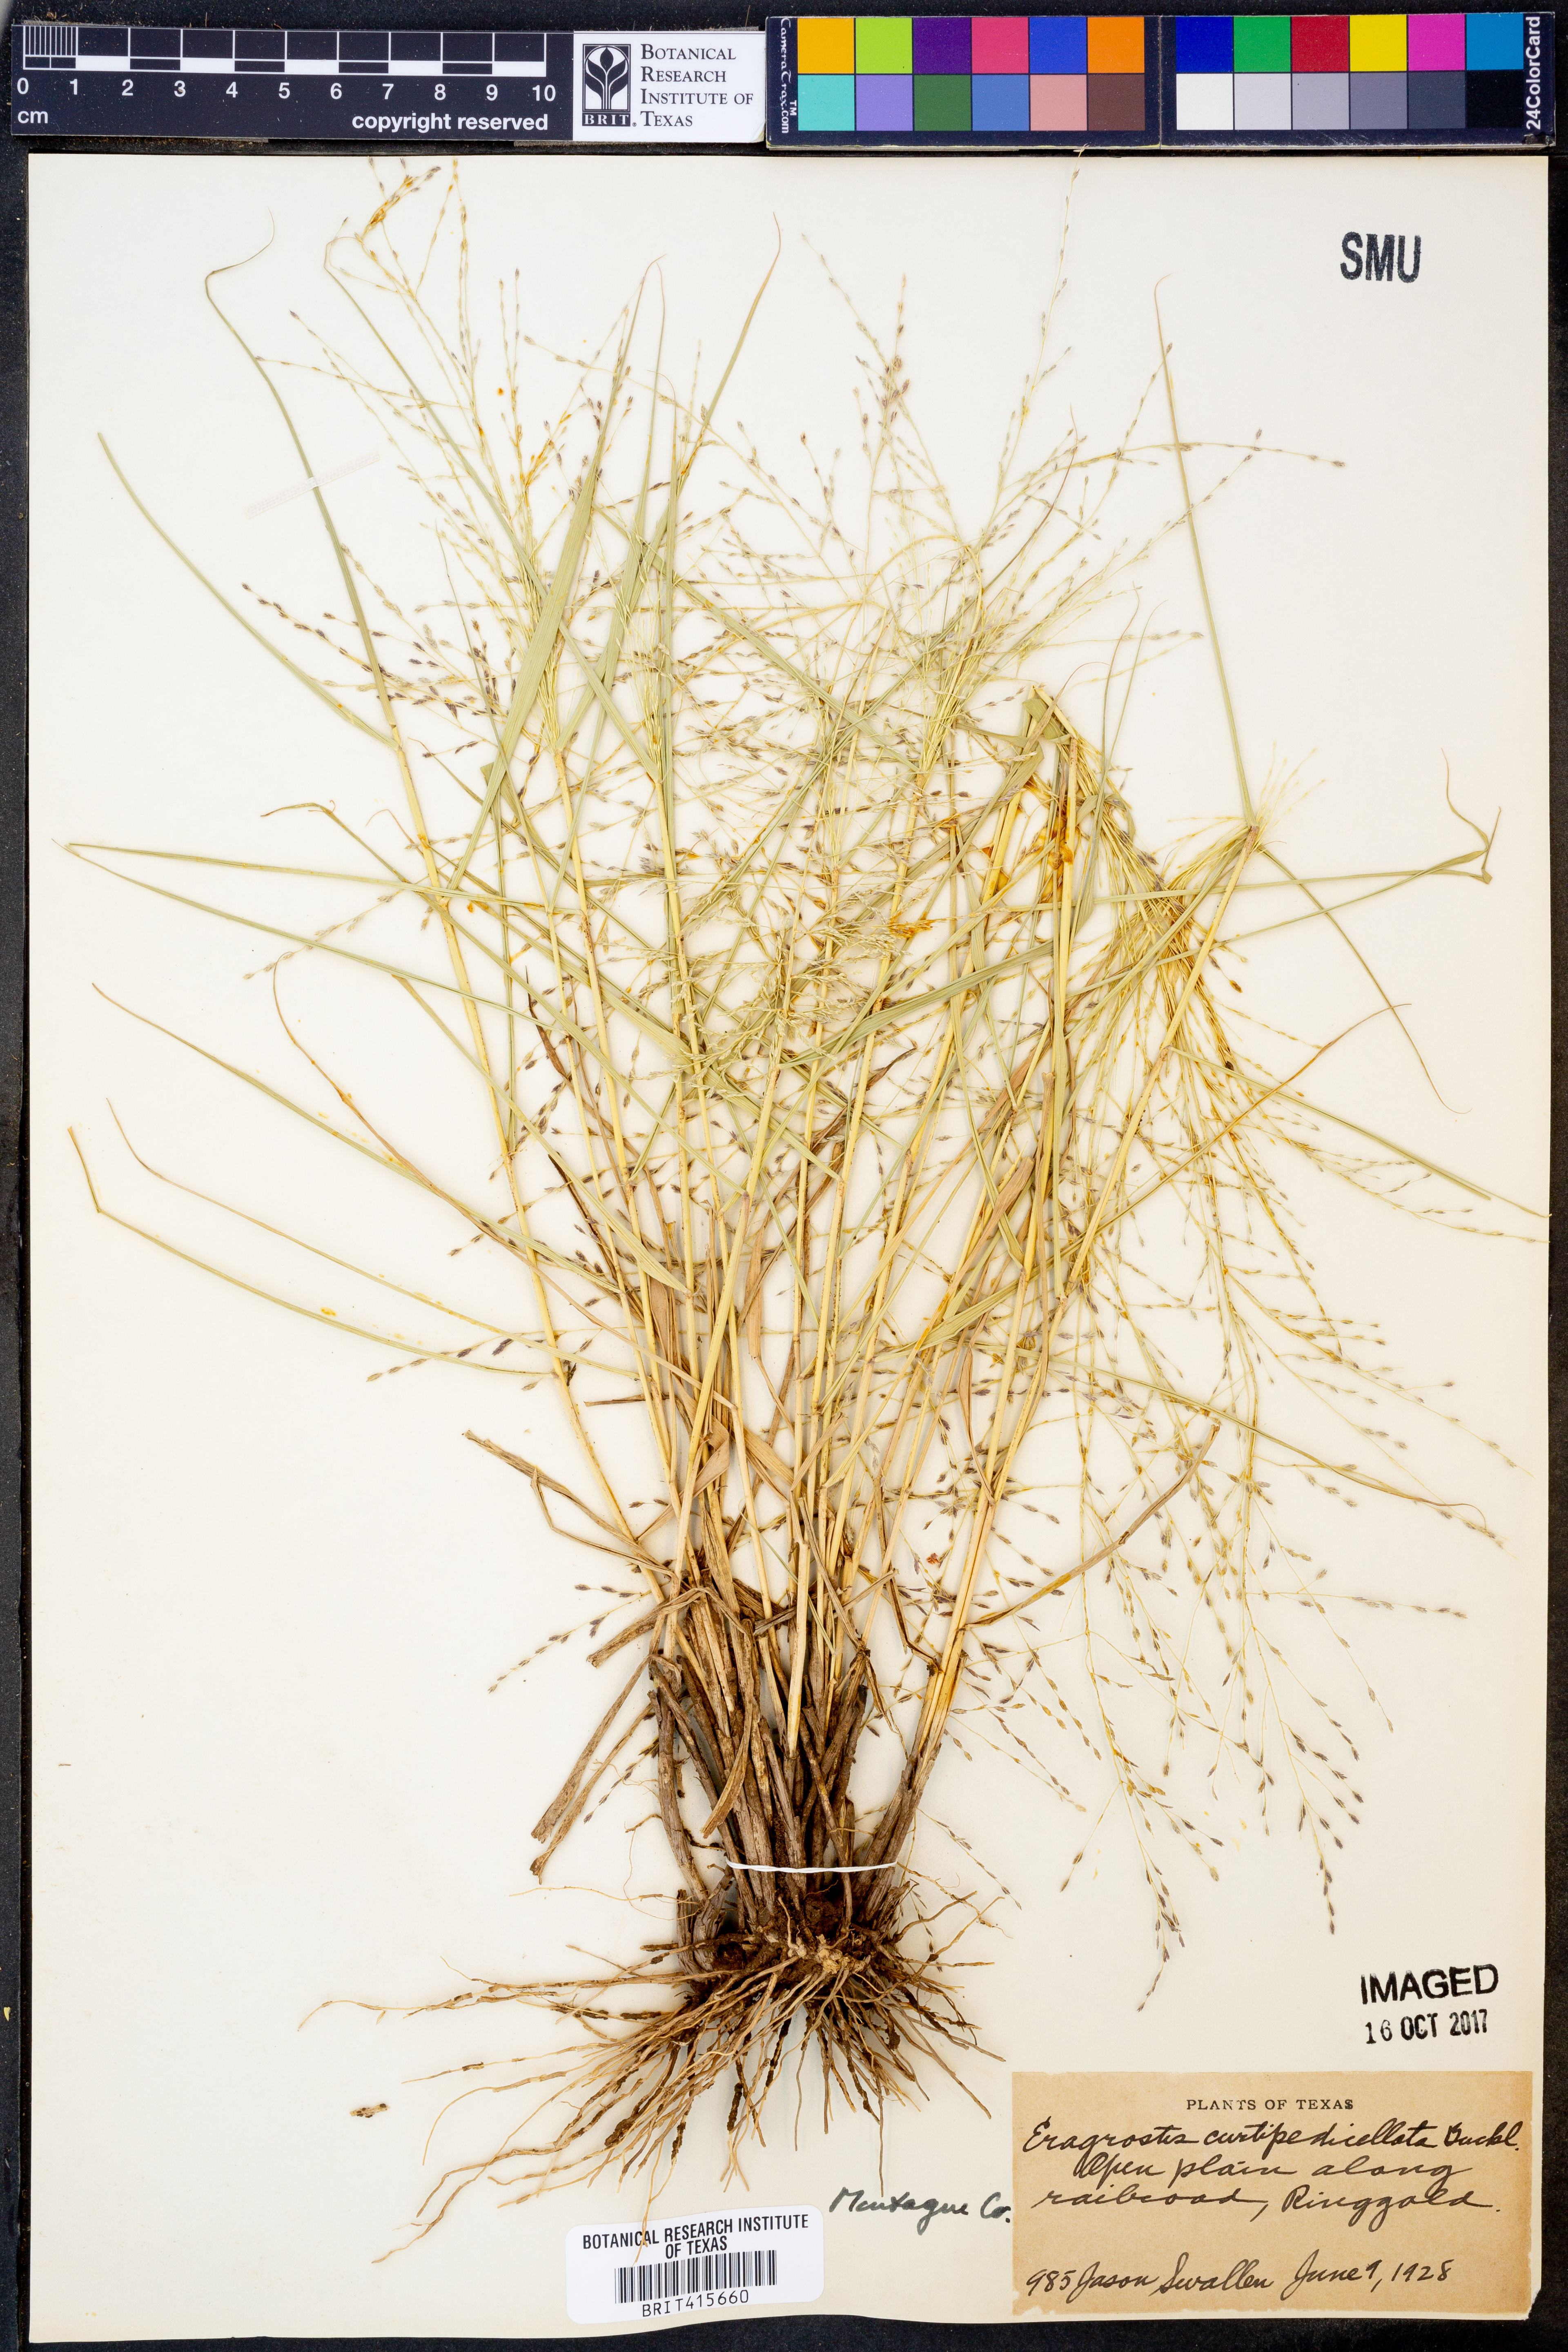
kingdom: Plantae
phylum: Tracheophyta
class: Liliopsida
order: Poales
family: Poaceae
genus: Eragrostis
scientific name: Eragrostis curtipedicellata
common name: Gummy love grass
